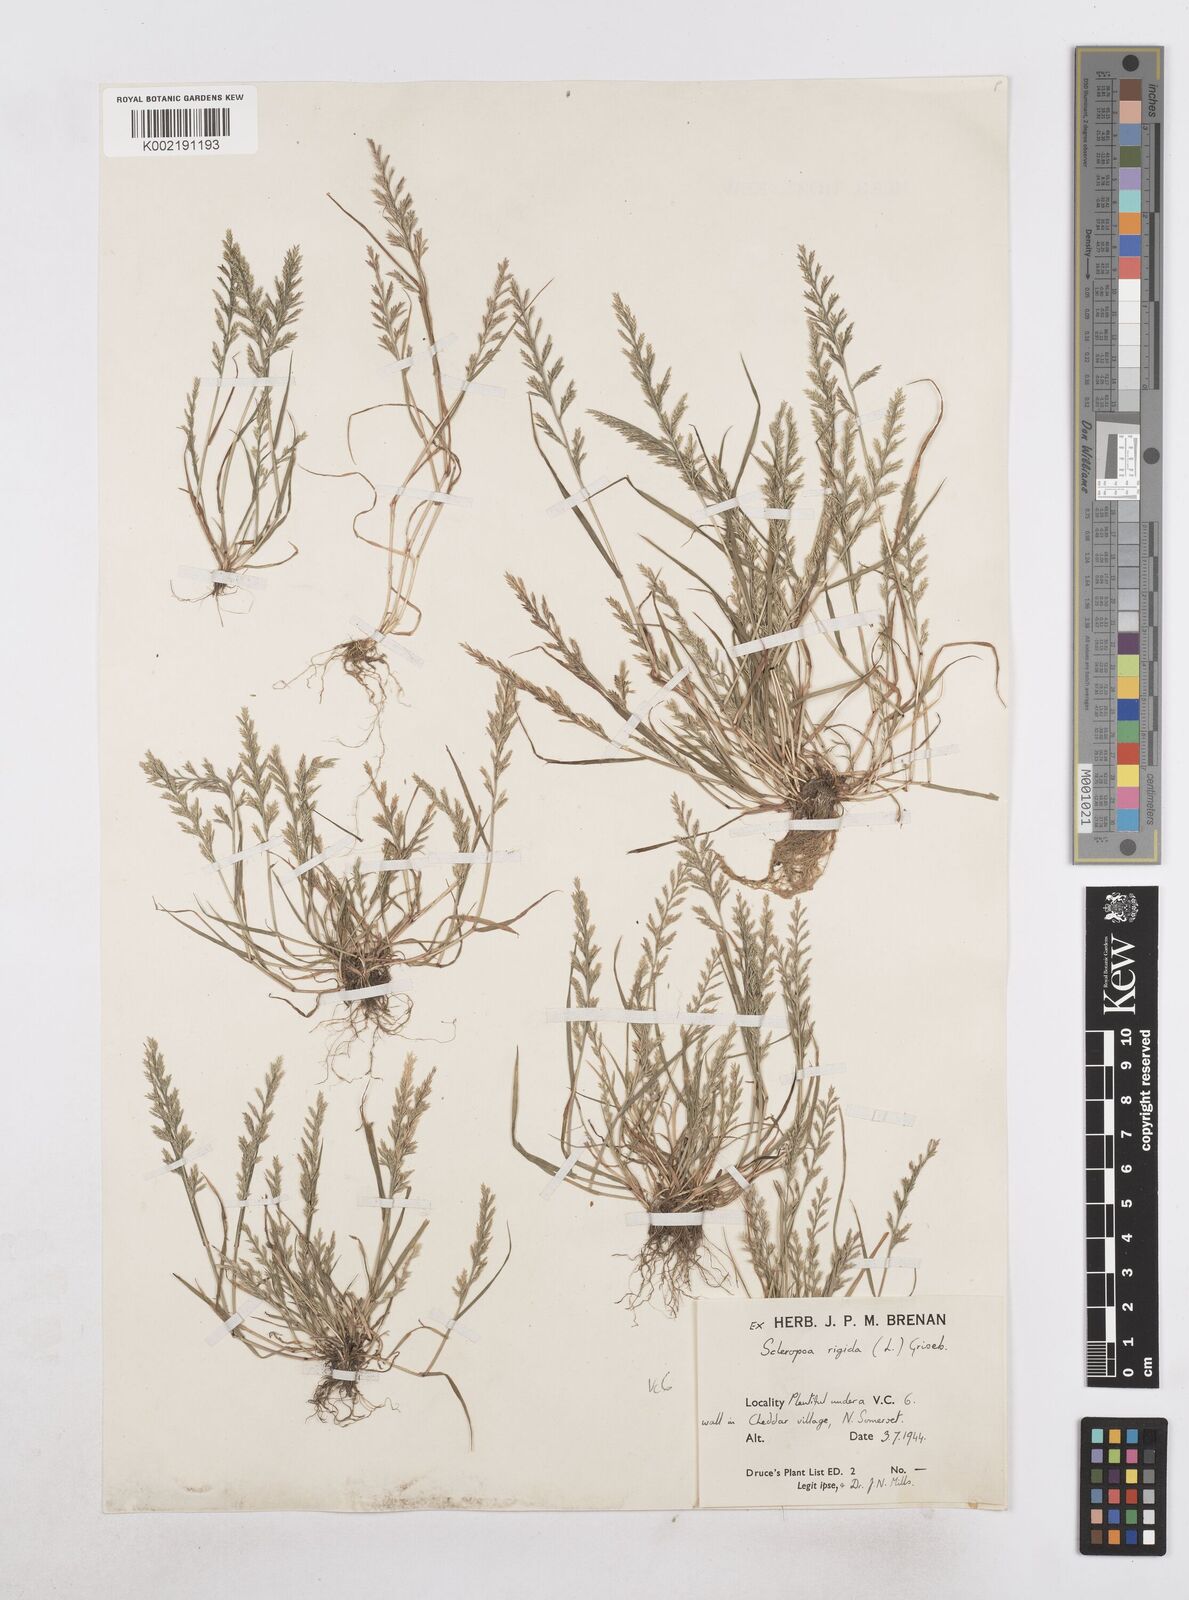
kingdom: Plantae
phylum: Tracheophyta
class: Liliopsida
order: Poales
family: Poaceae
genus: Catapodium
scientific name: Catapodium rigidum
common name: Fern-grass
